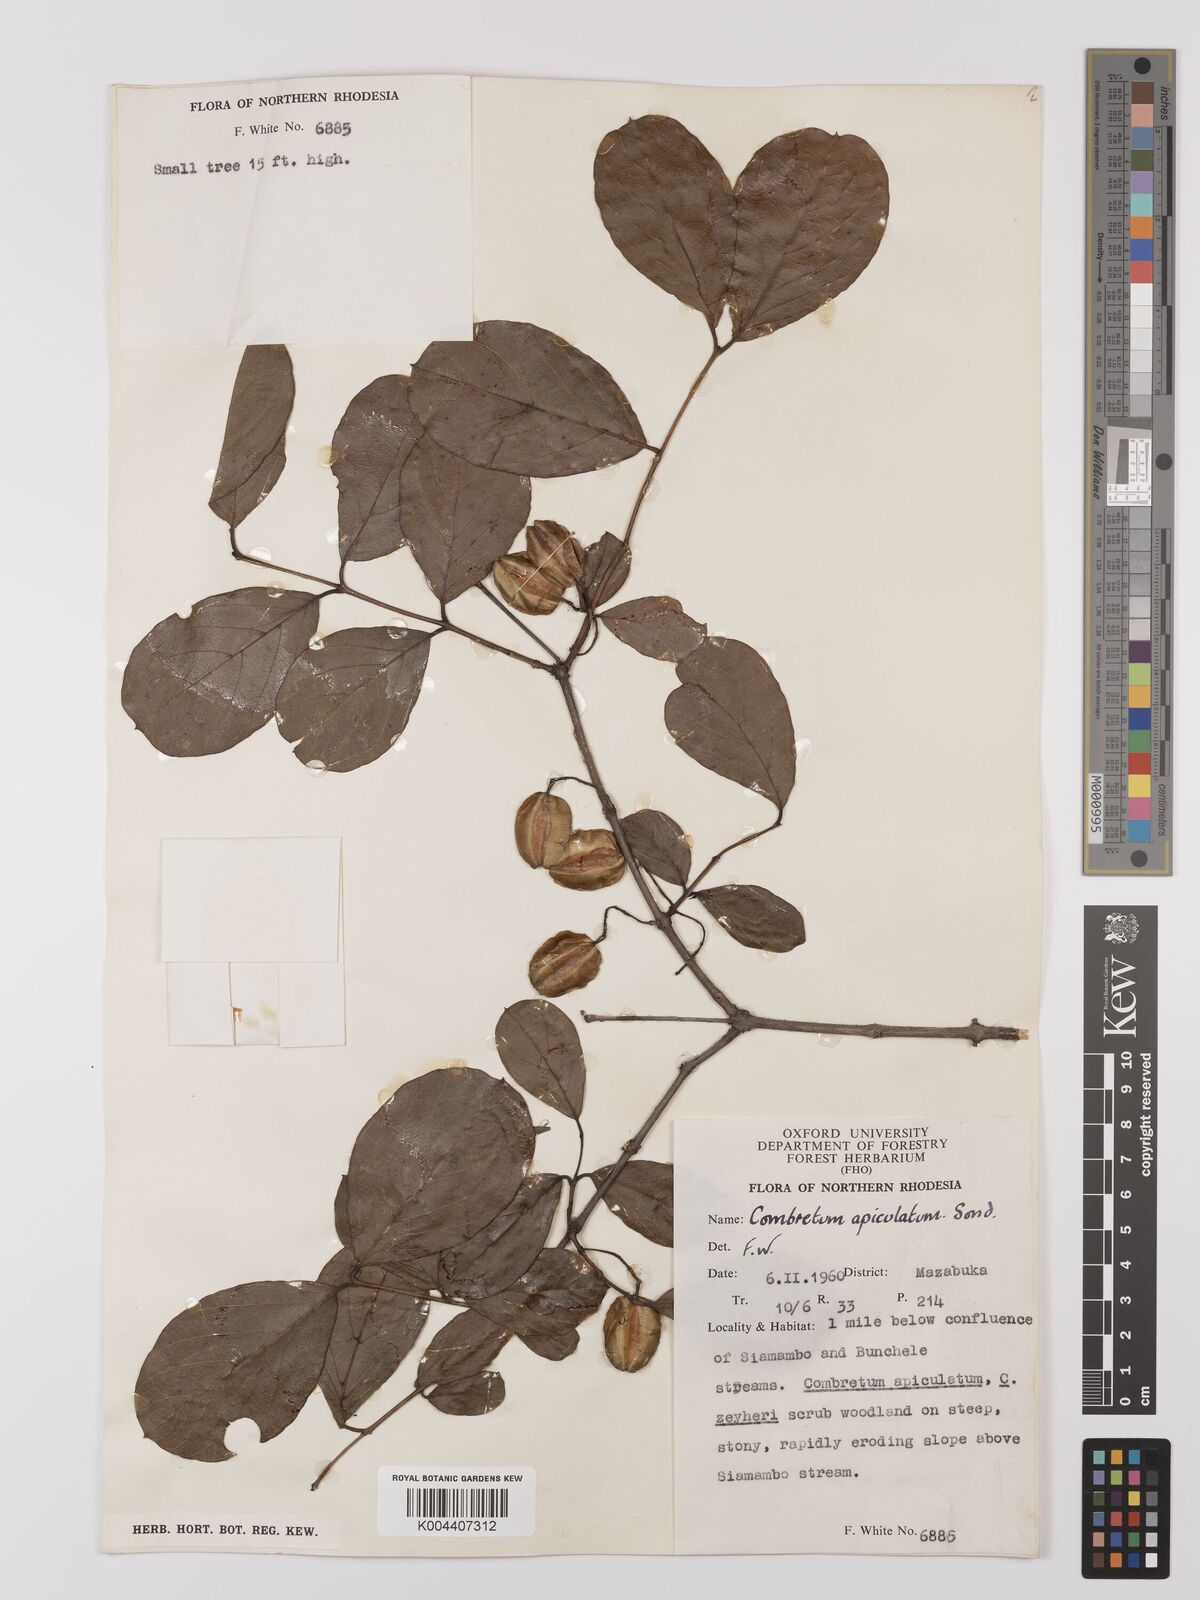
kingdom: Plantae
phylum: Tracheophyta
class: Magnoliopsida
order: Myrtales
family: Combretaceae
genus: Combretum
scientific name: Combretum apiculatum
